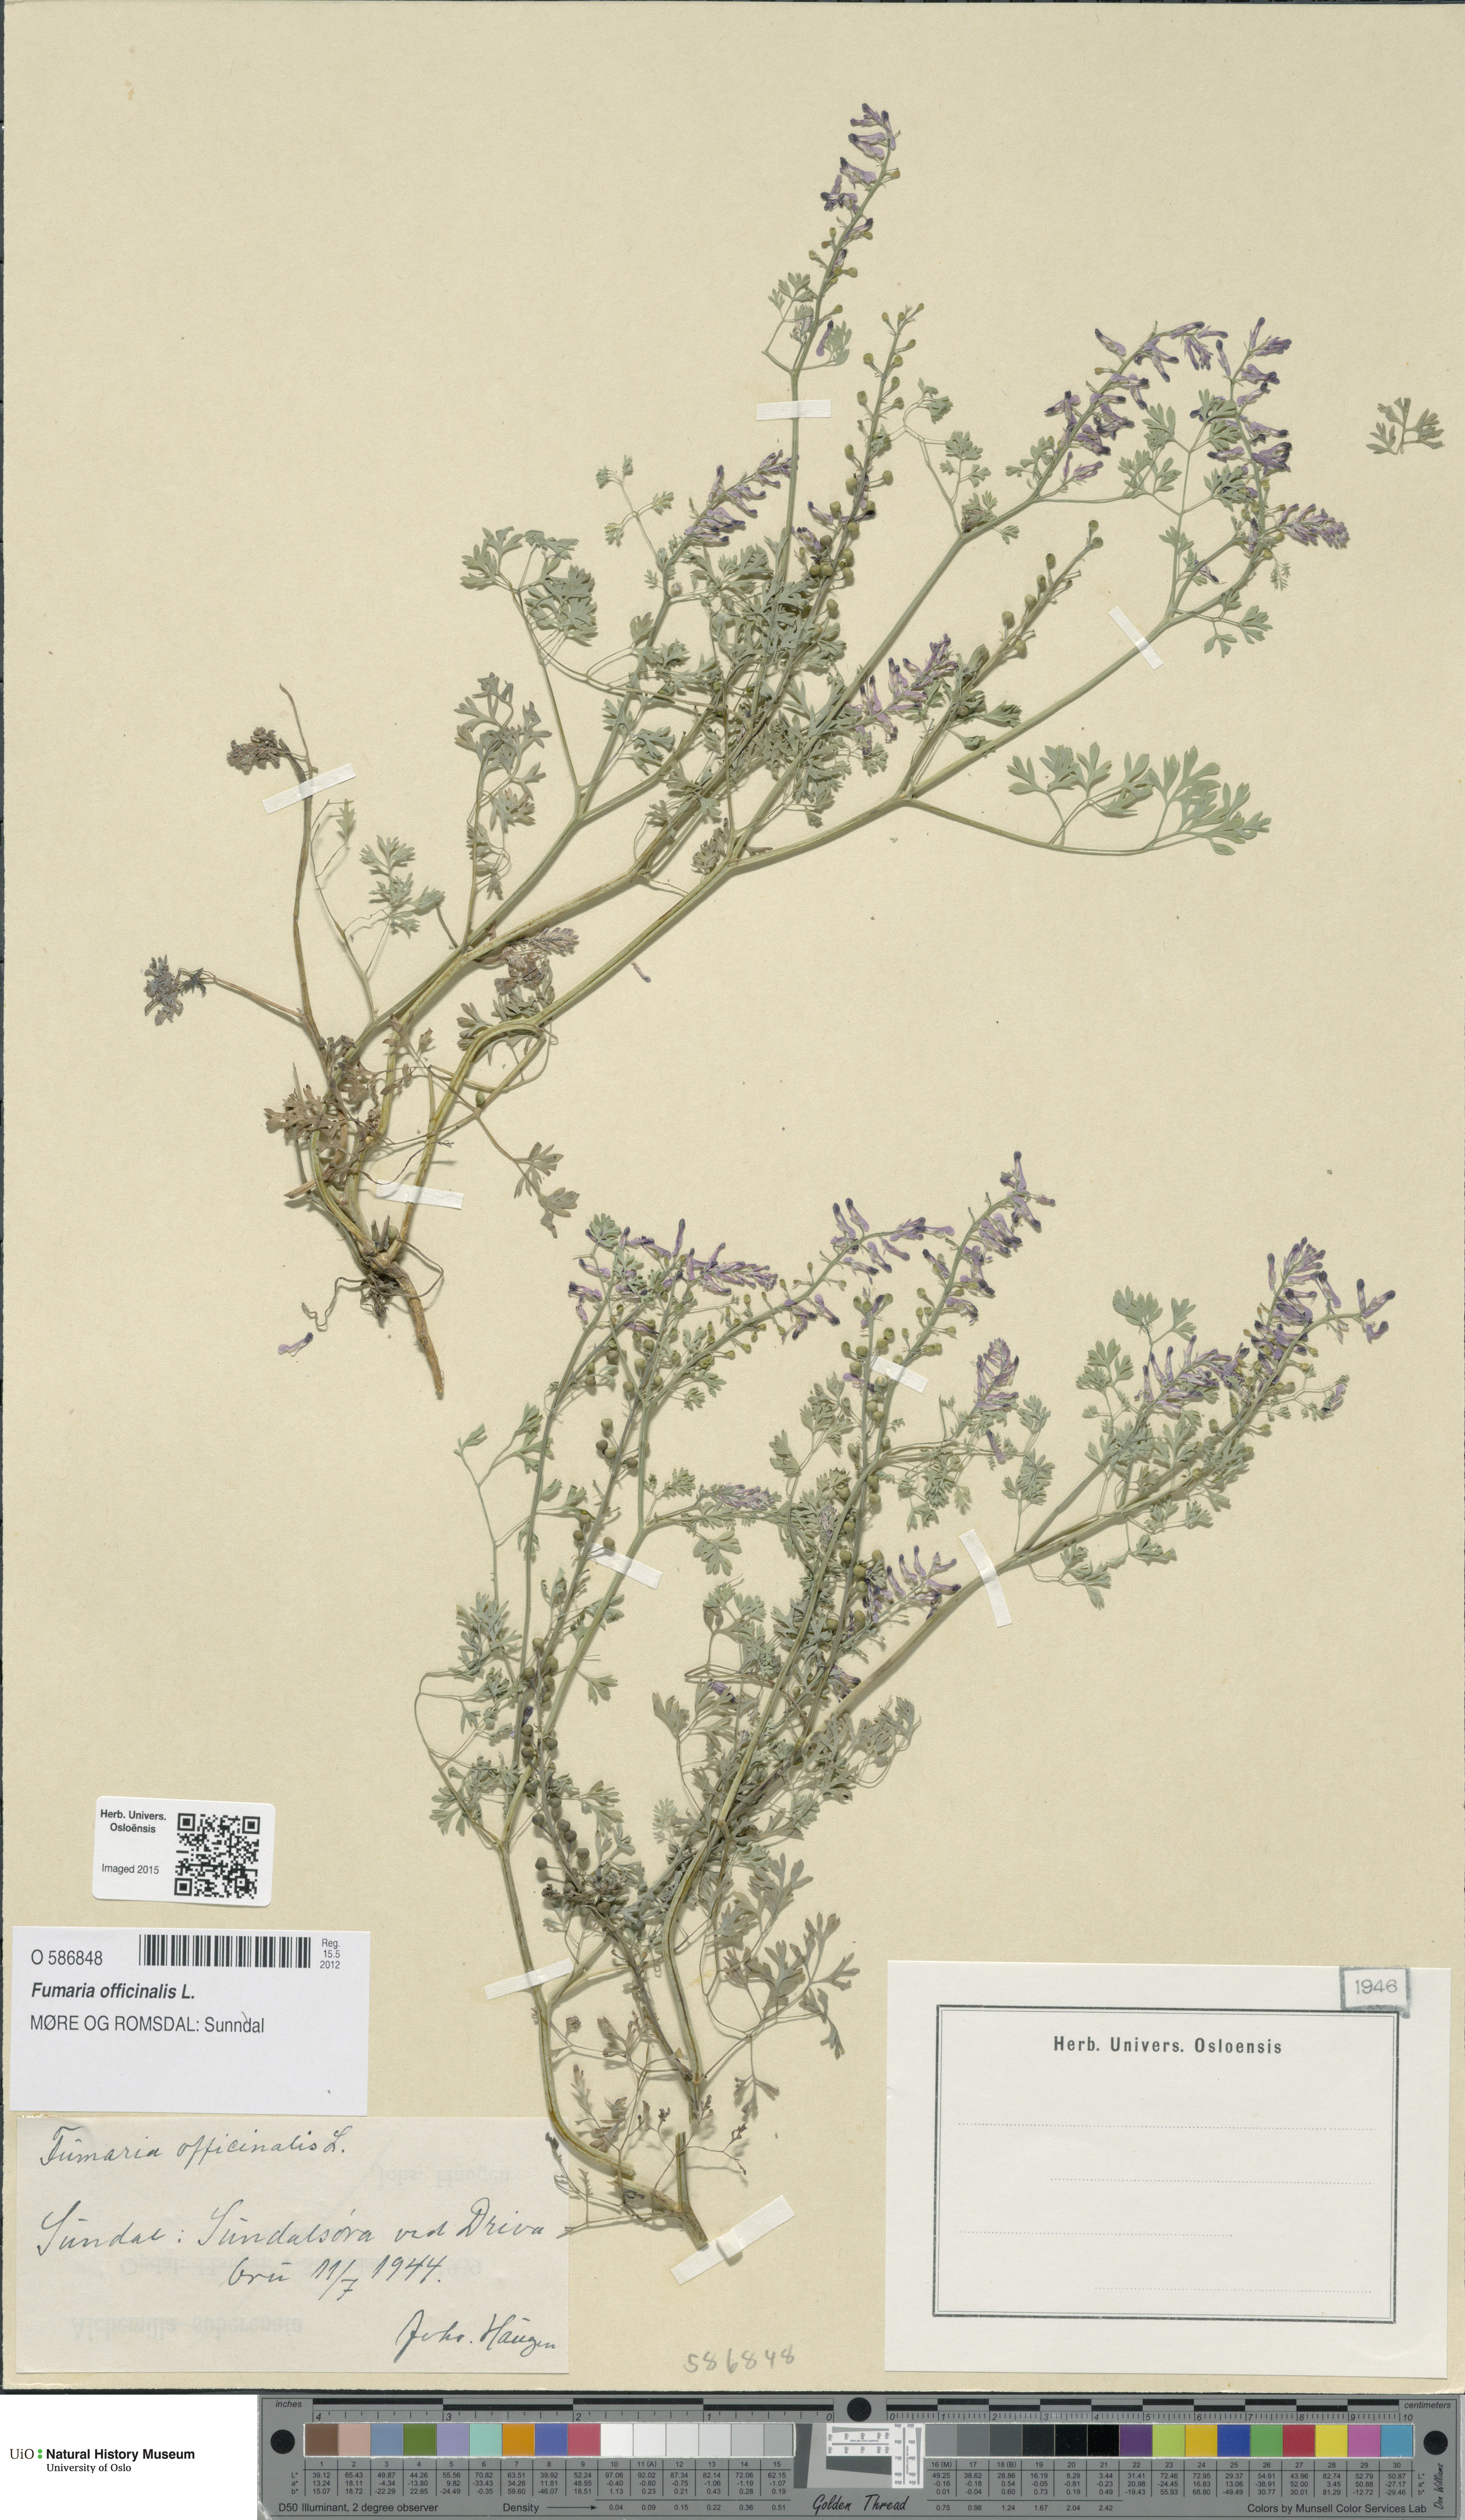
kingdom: Plantae
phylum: Tracheophyta
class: Magnoliopsida
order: Ranunculales
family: Papaveraceae
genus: Fumaria
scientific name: Fumaria officinalis
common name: Common fumitory
